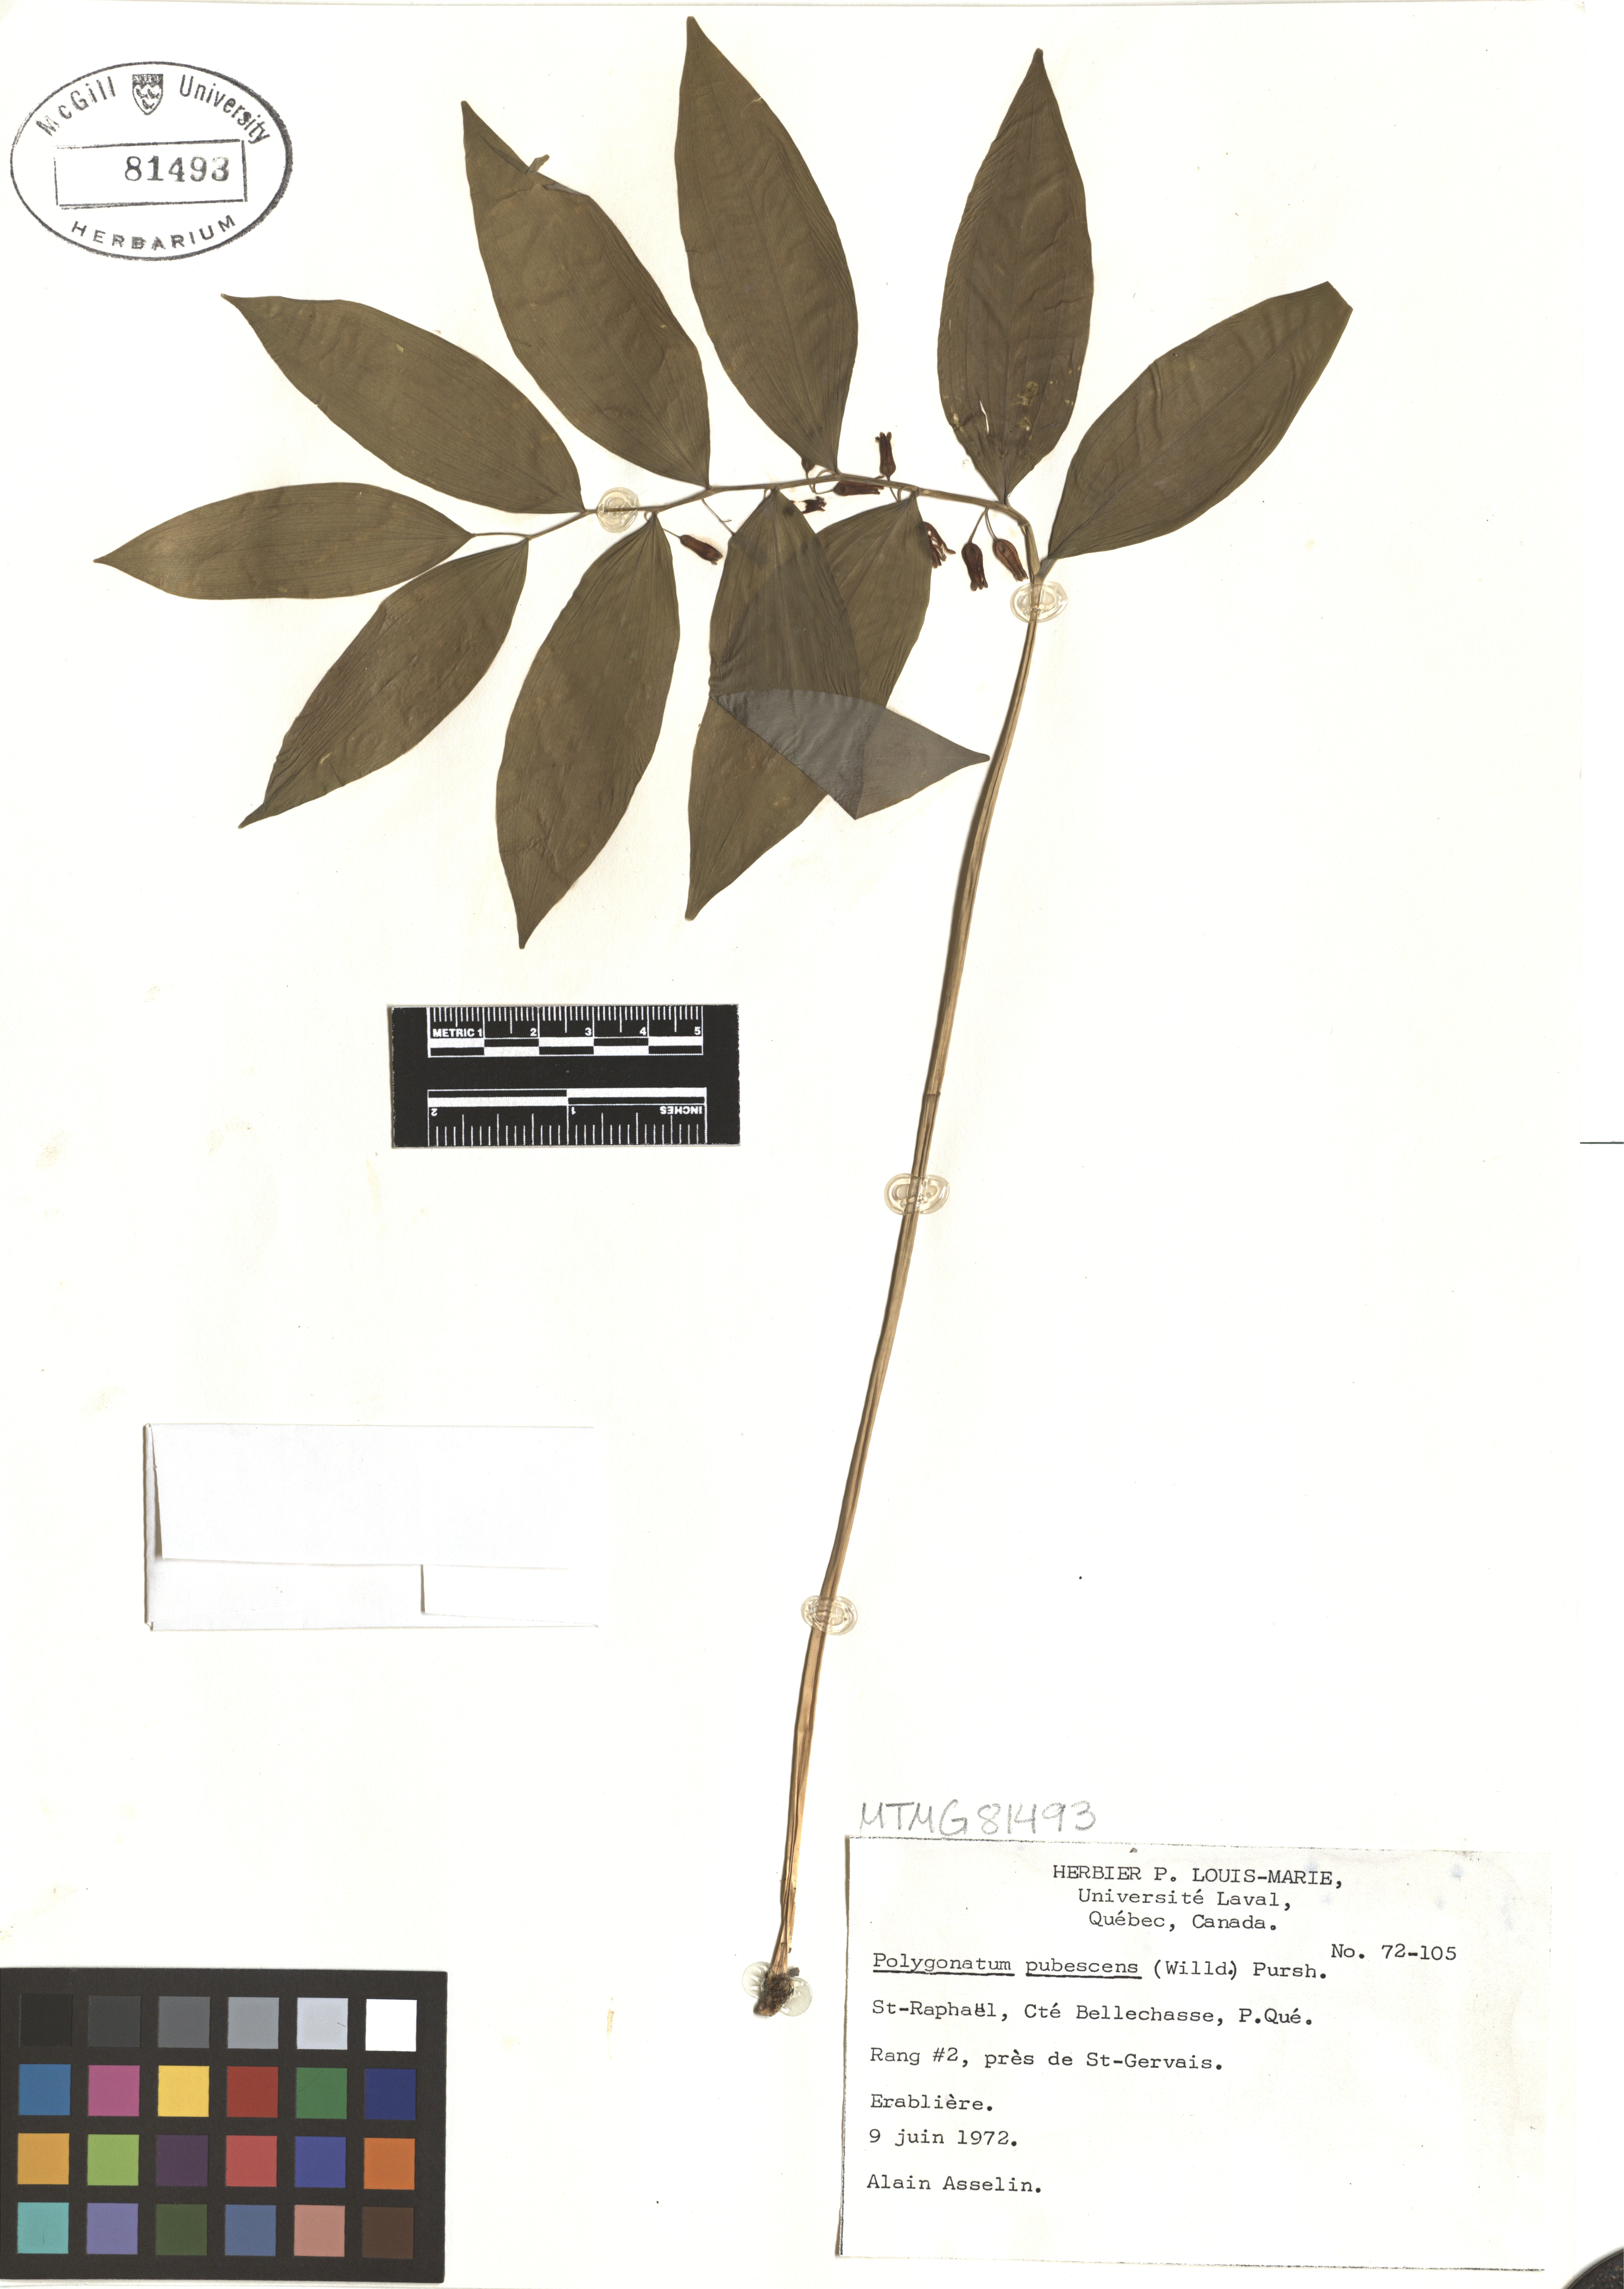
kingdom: Plantae
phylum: Tracheophyta
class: Liliopsida
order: Asparagales
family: Asparagaceae
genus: Polygonatum
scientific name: Polygonatum pubescens
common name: Downy solomon's seal
